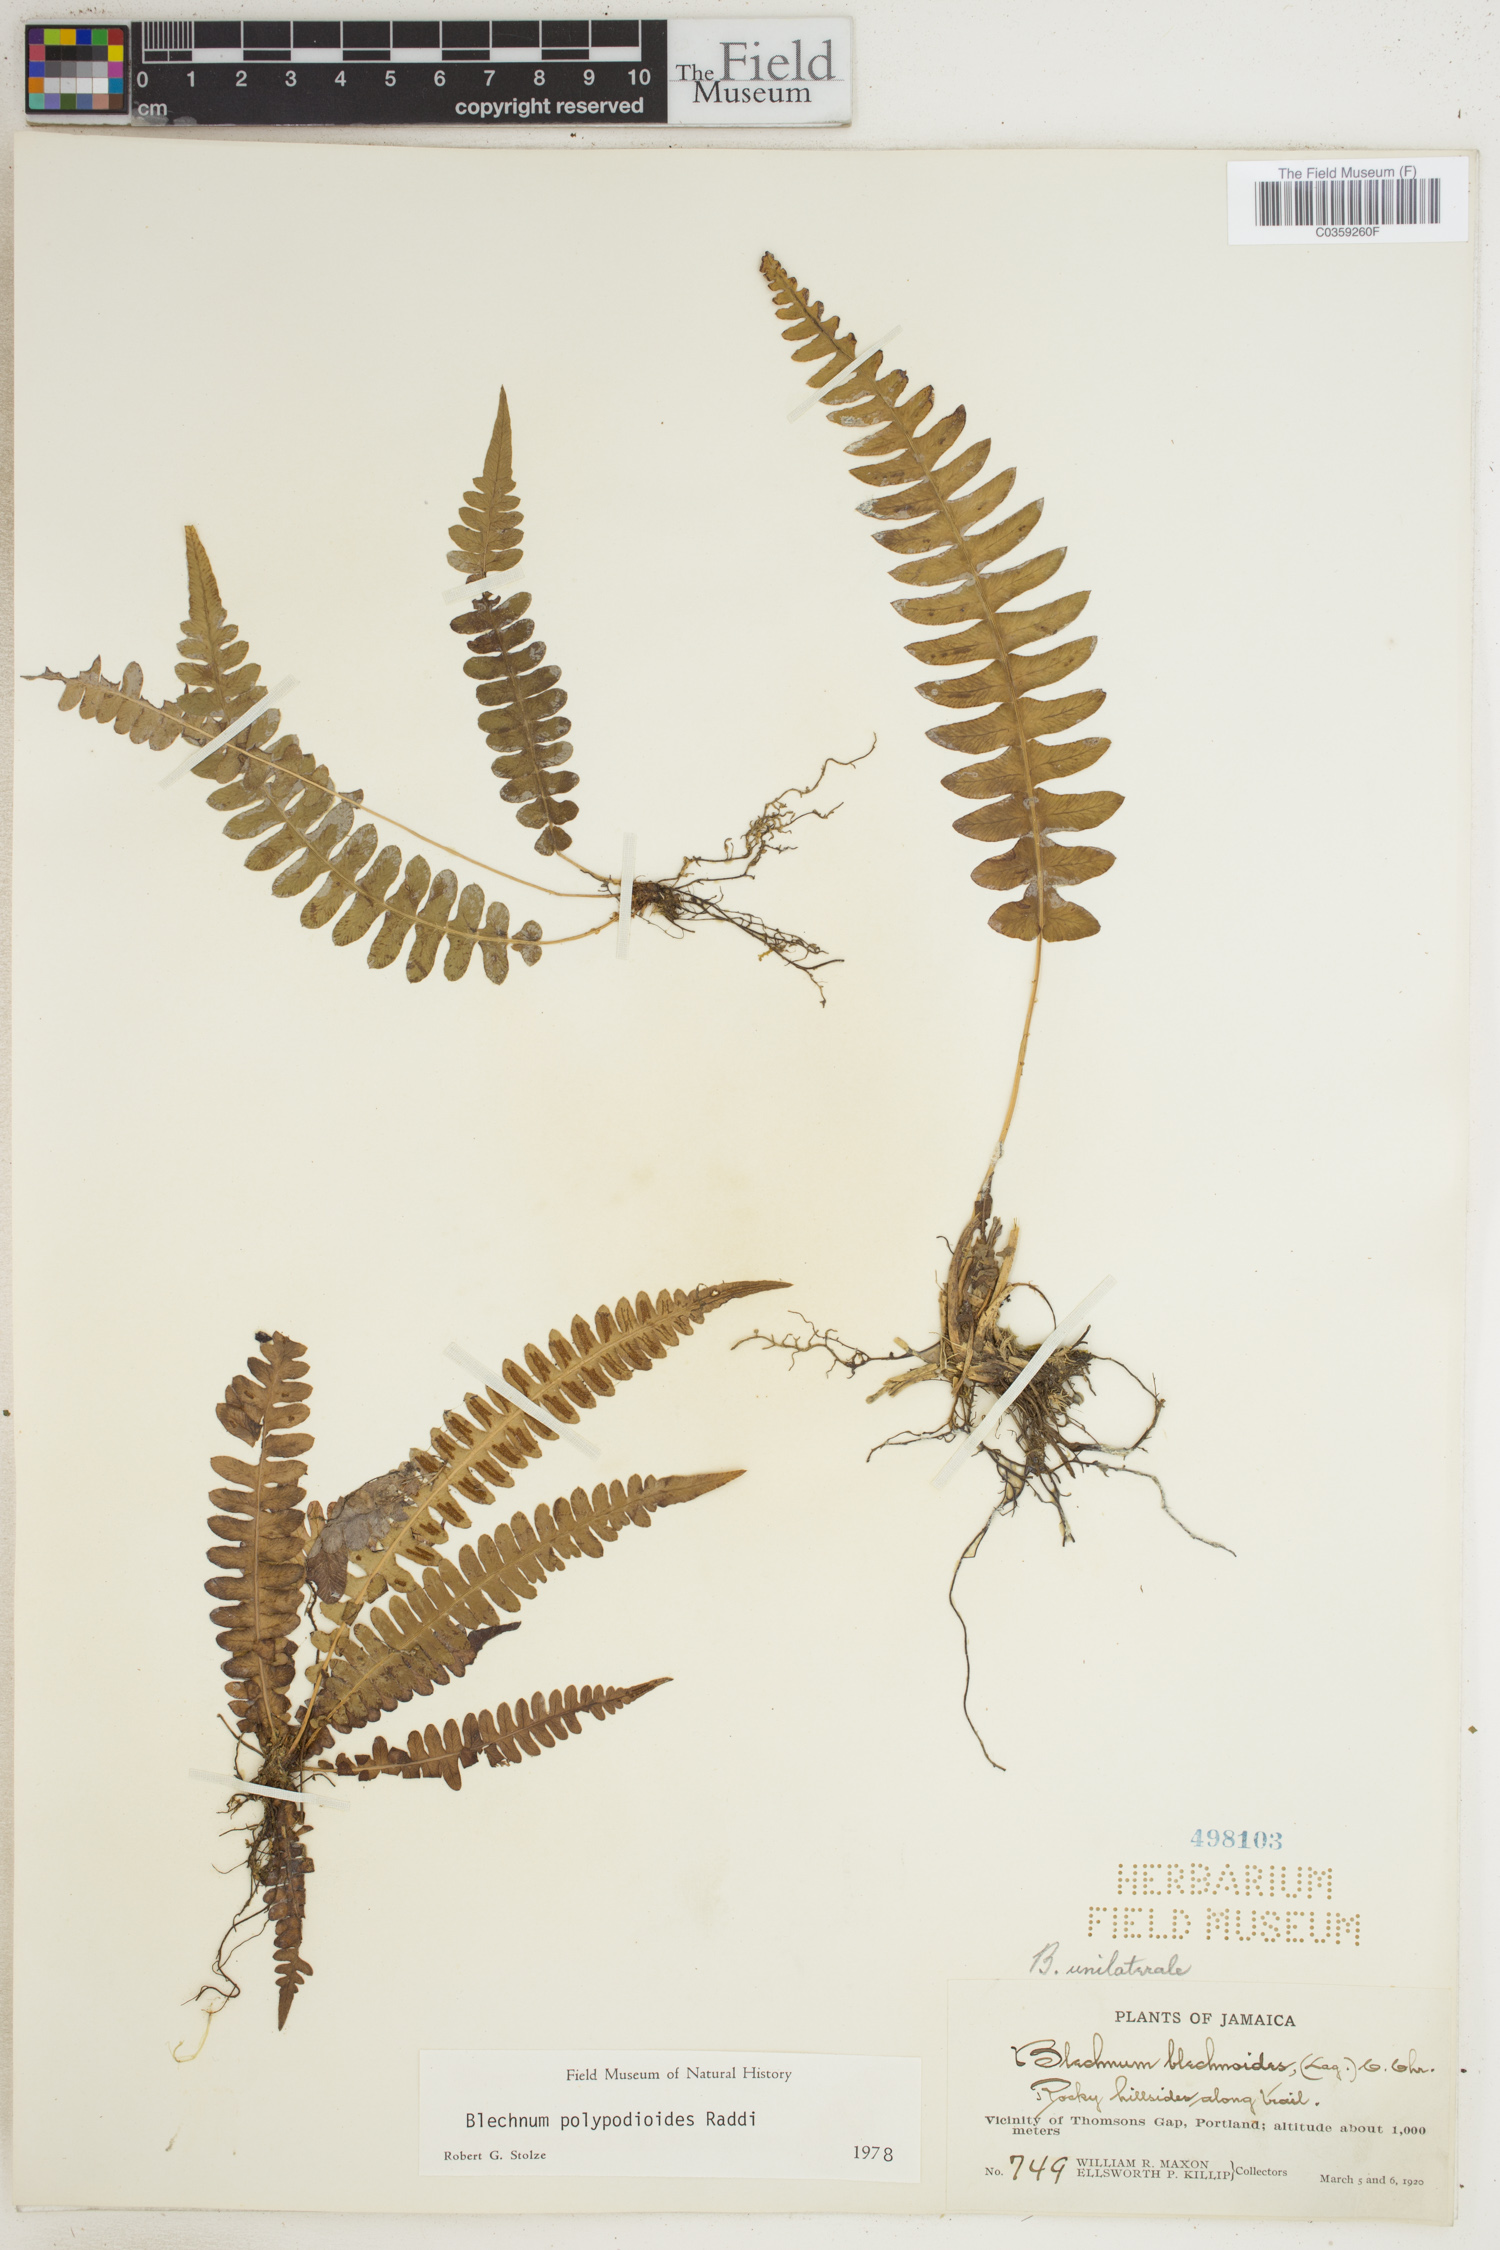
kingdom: Plantae
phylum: Tracheophyta
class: Polypodiopsida
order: Polypodiales
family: Blechnaceae
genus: Blechnum
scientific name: Blechnum polypodioides
